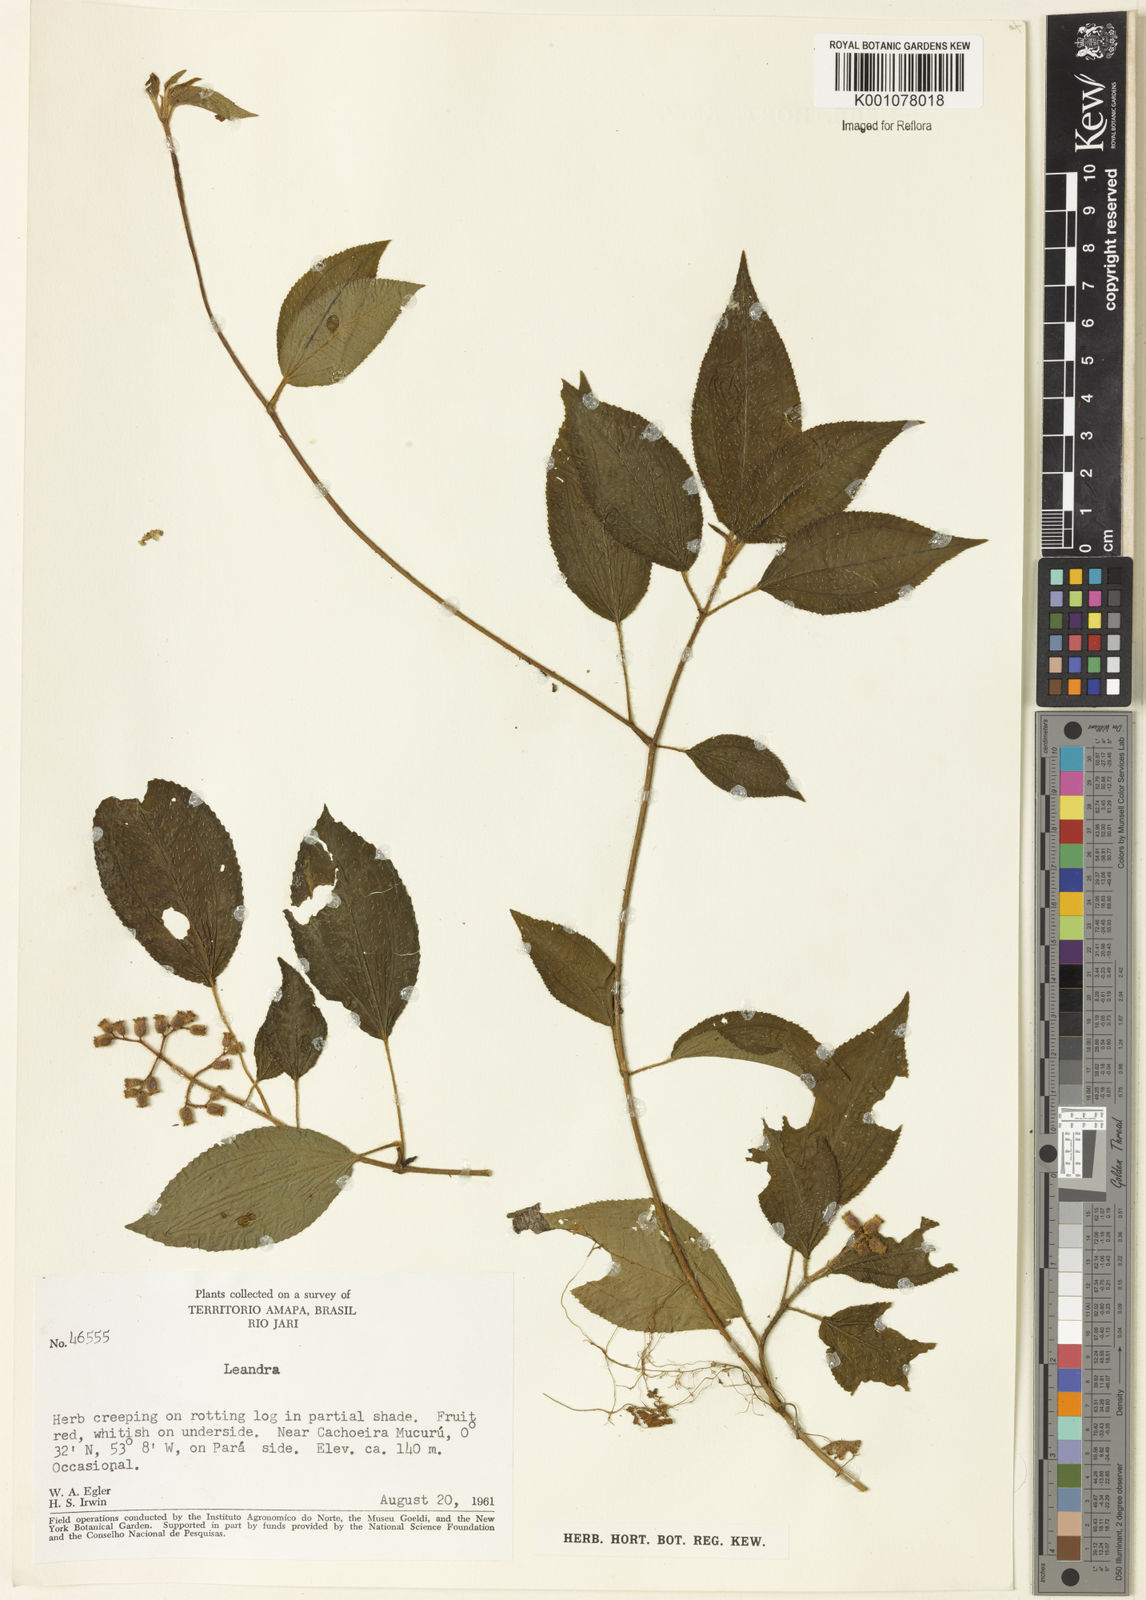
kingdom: Plantae
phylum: Tracheophyta
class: Magnoliopsida
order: Myrtales
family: Melastomataceae
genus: Miconia
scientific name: Miconia
